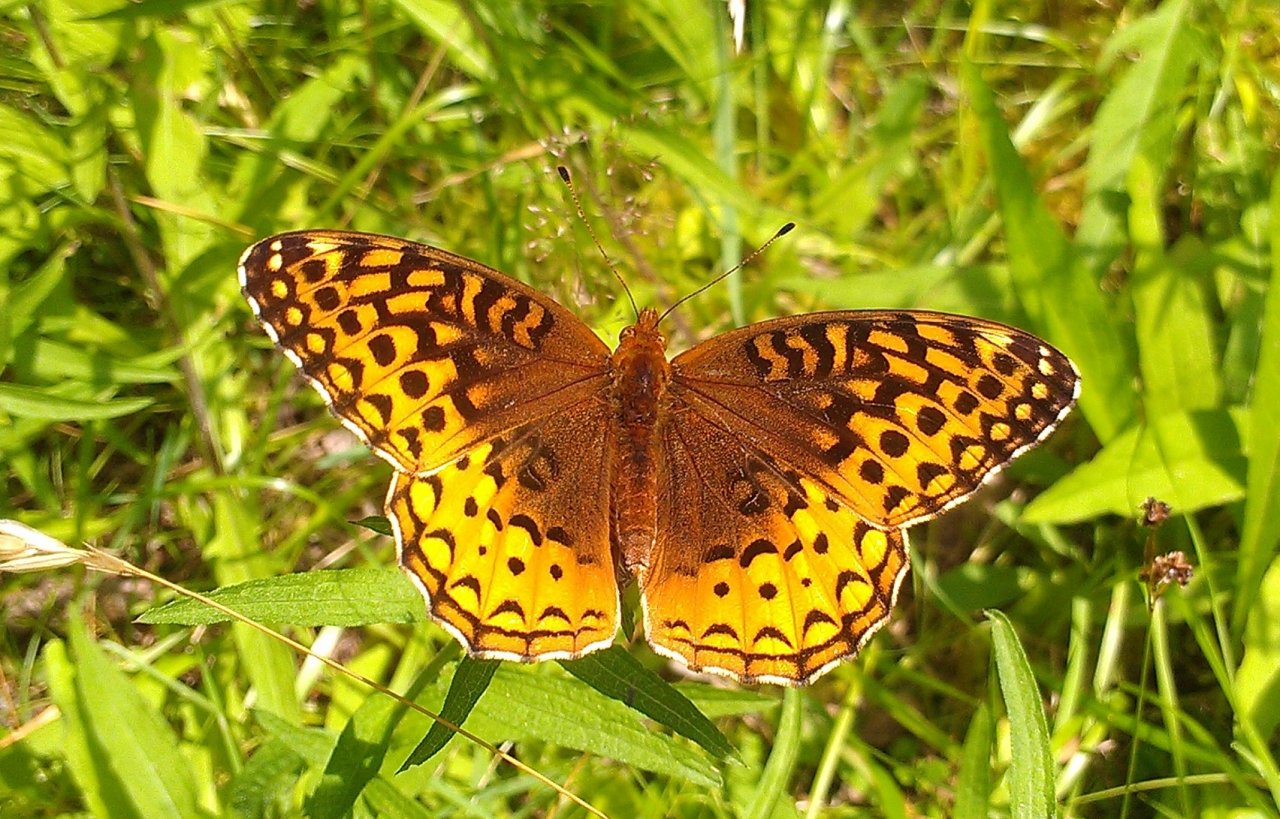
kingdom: Animalia
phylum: Arthropoda
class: Insecta
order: Lepidoptera
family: Nymphalidae
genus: Speyeria
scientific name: Speyeria cybele
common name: Great Spangled Fritillary
